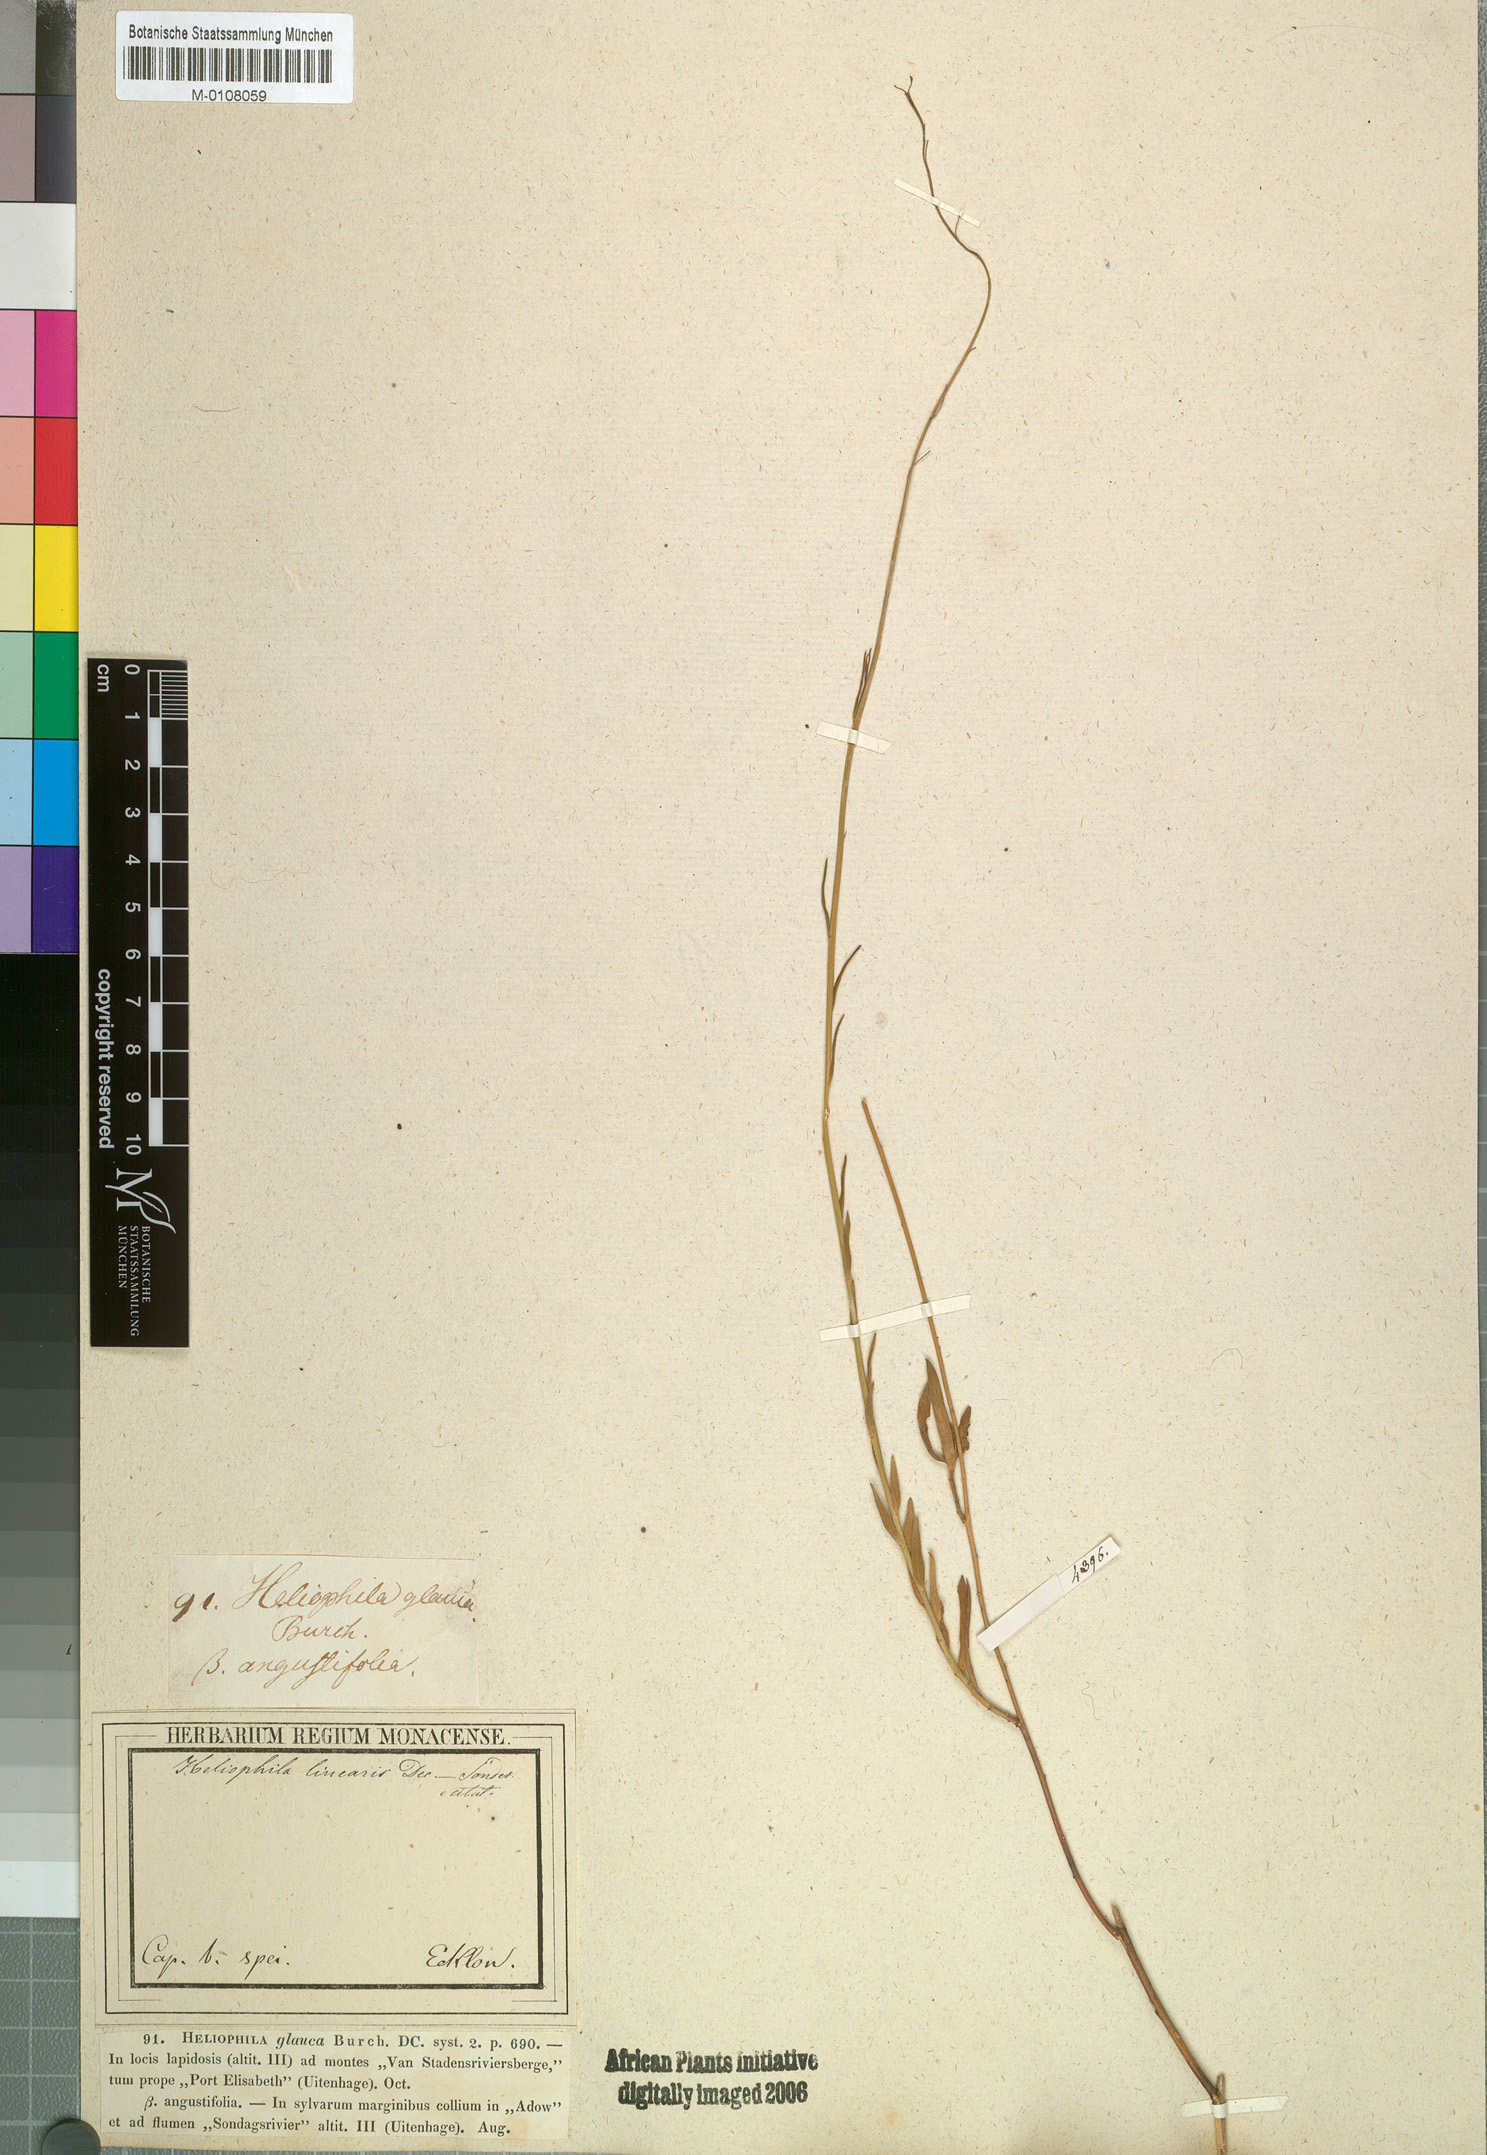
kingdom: Plantae
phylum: Tracheophyta
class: Magnoliopsida
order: Brassicales
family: Brassicaceae
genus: Heliophila
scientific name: Heliophila glauca
